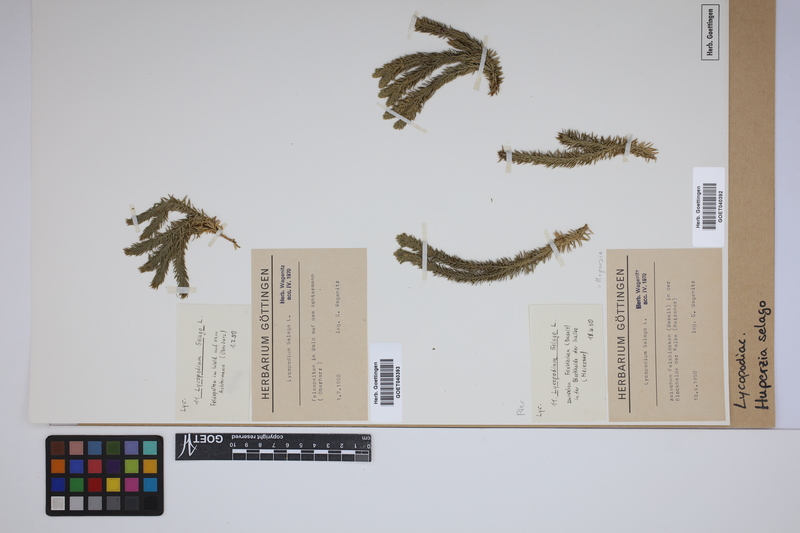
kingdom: Plantae
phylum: Tracheophyta
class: Lycopodiopsida
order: Lycopodiales
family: Lycopodiaceae
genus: Huperzia
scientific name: Huperzia selago
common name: Northern firmoss
